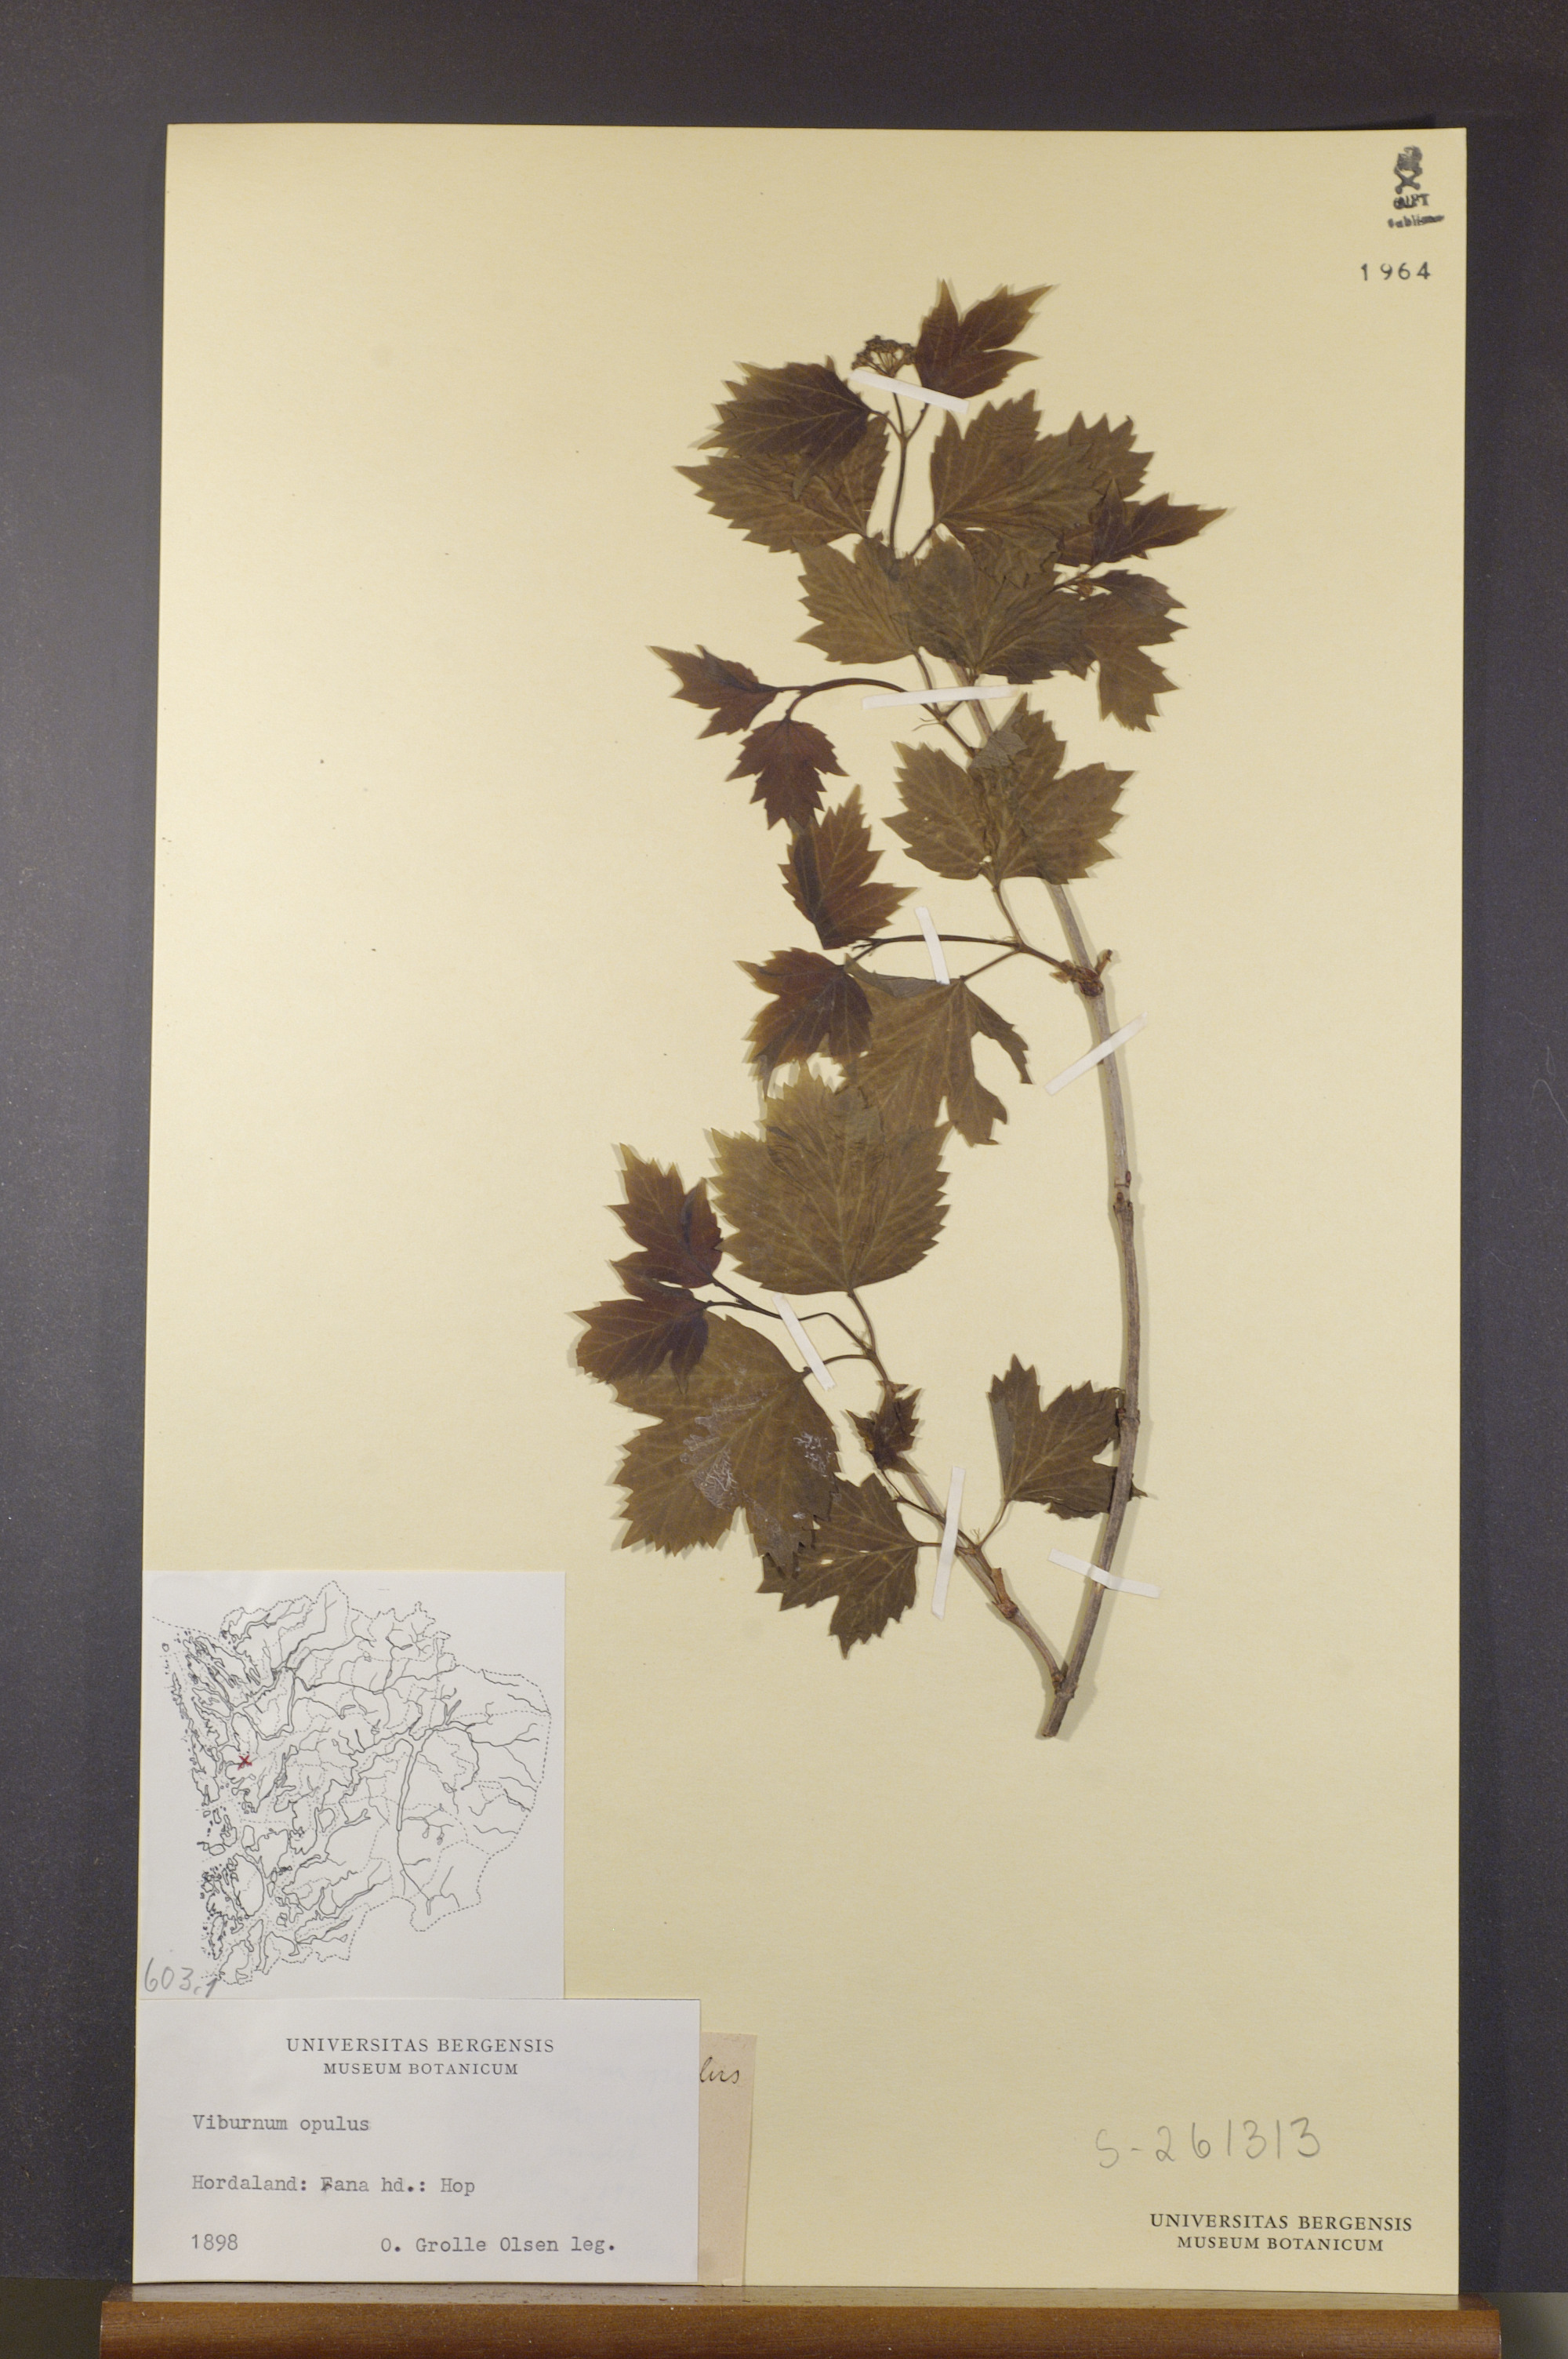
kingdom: Plantae
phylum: Tracheophyta
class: Magnoliopsida
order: Dipsacales
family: Viburnaceae
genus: Viburnum
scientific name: Viburnum opulus
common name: Guelder-rose
